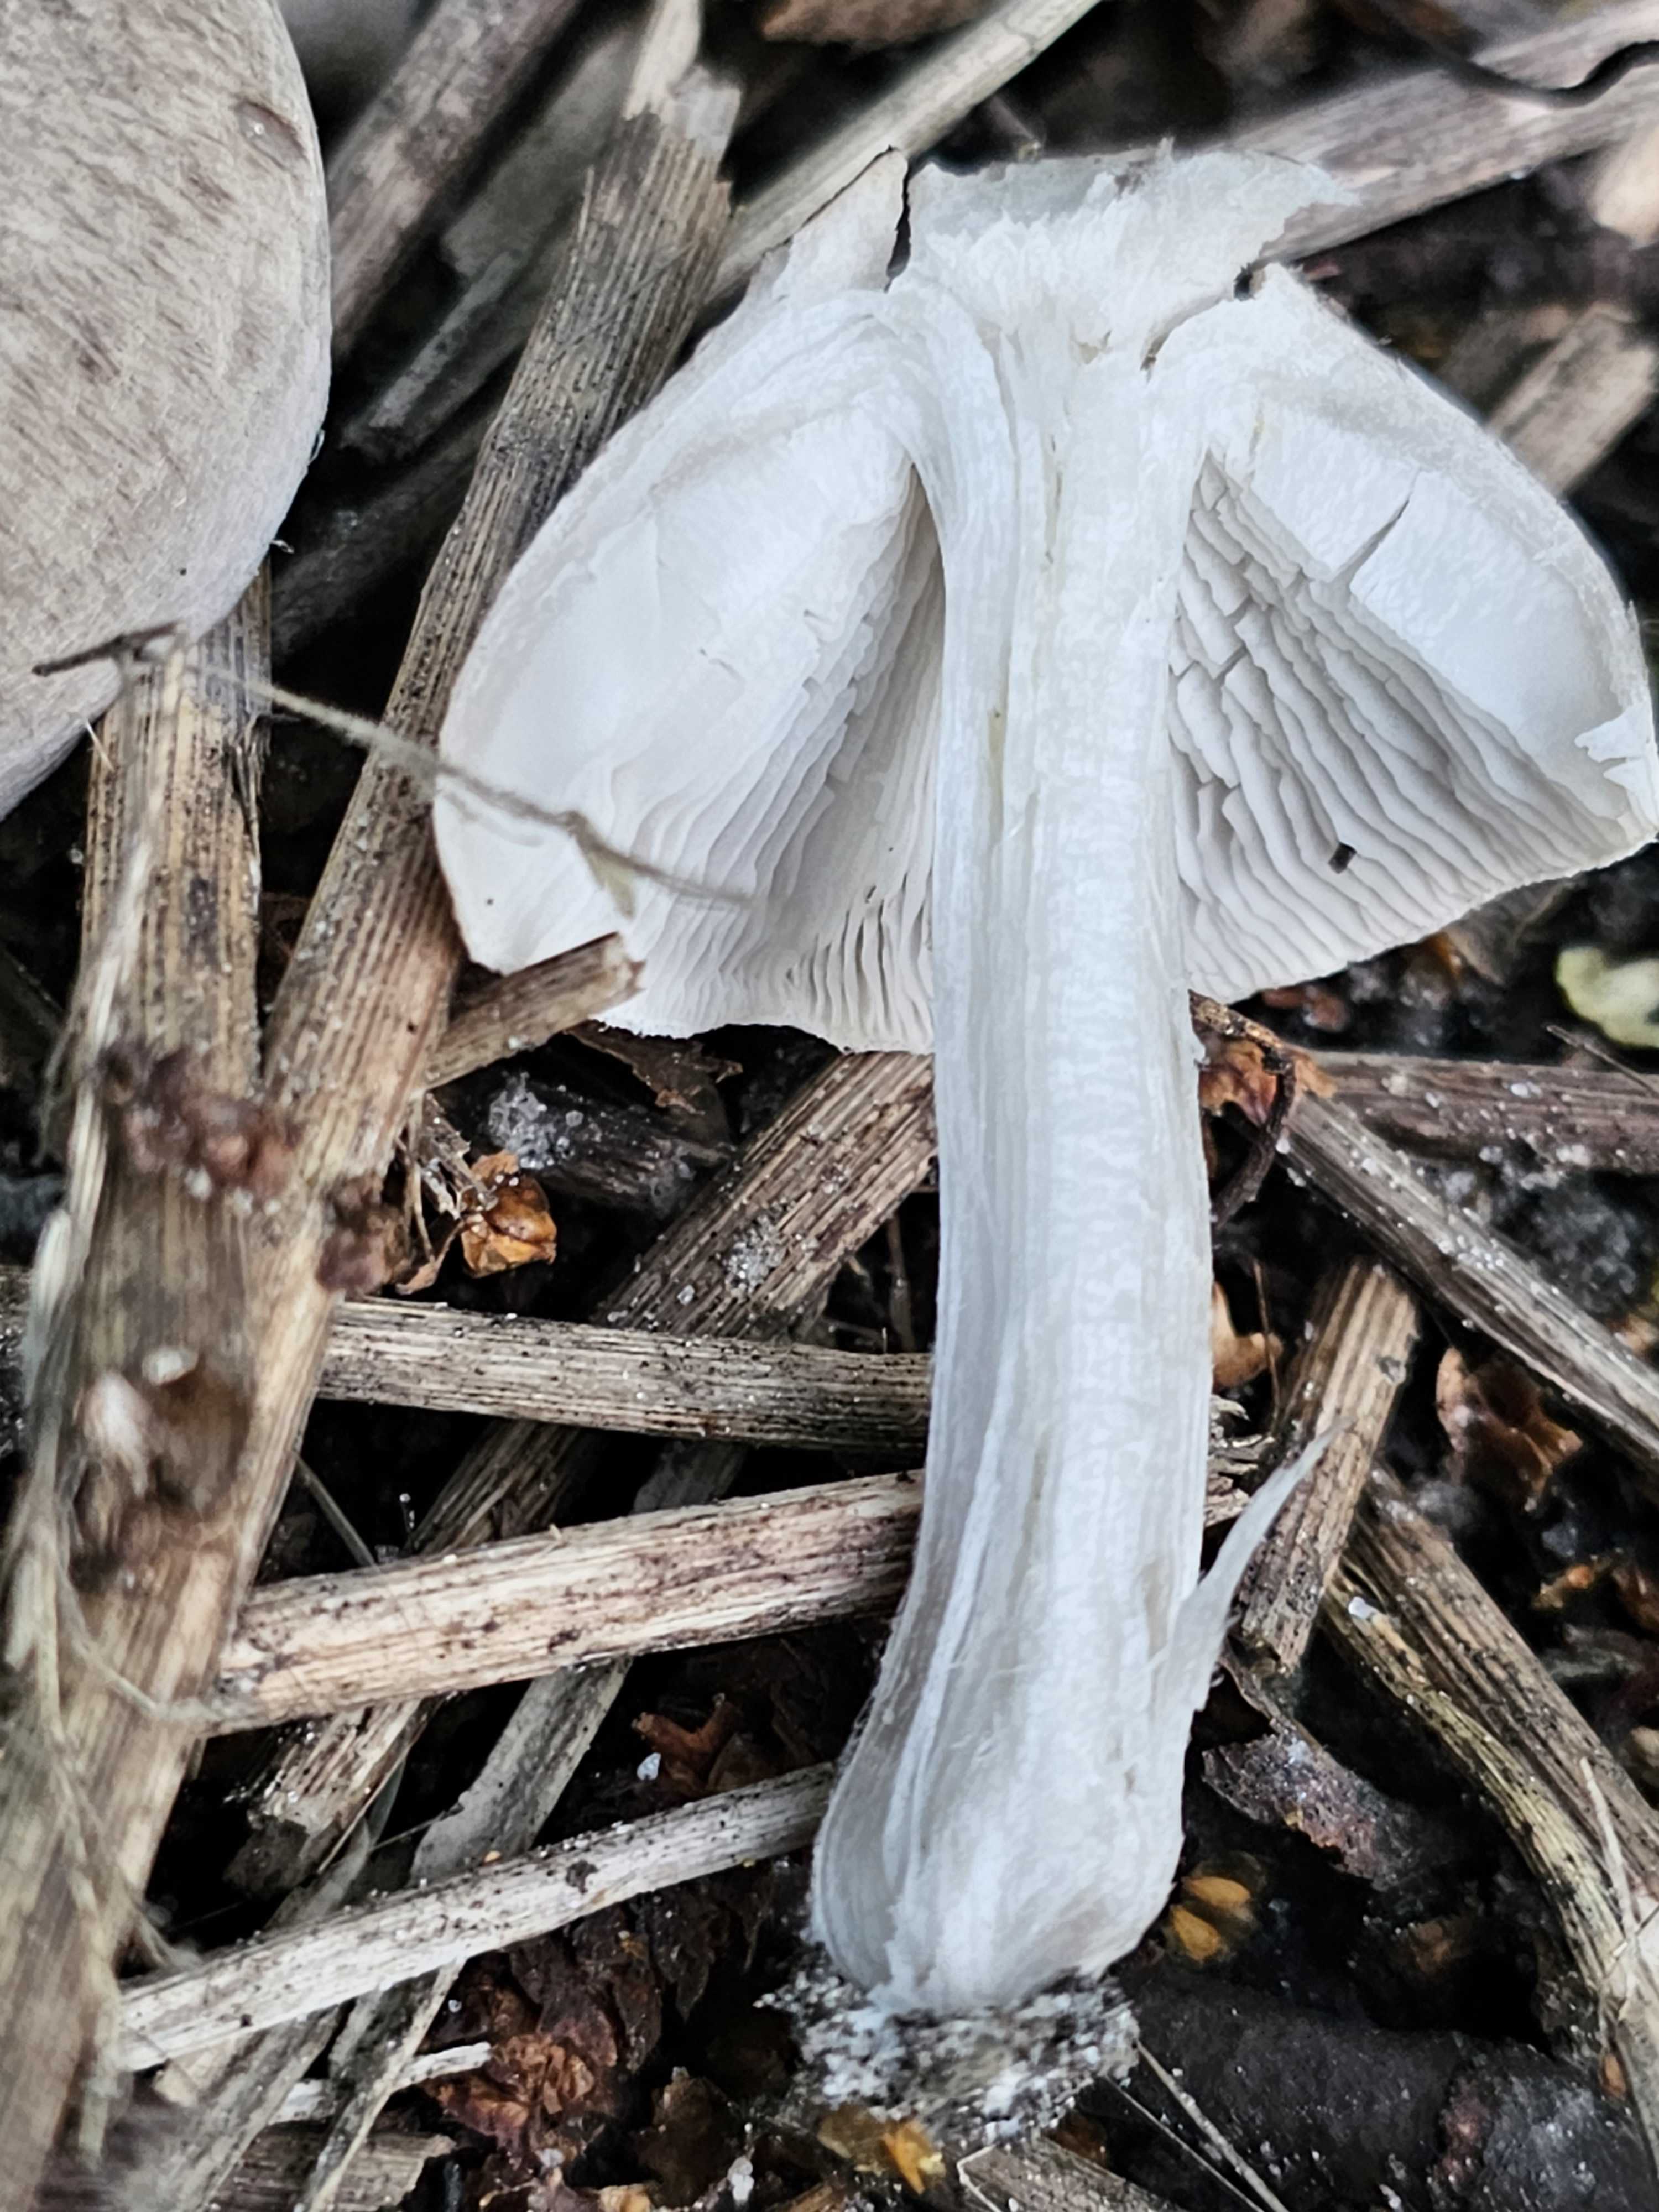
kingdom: Fungi
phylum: Basidiomycota
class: Agaricomycetes
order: Agaricales
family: Tricholomataceae
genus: Tricholoma
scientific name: Tricholoma
